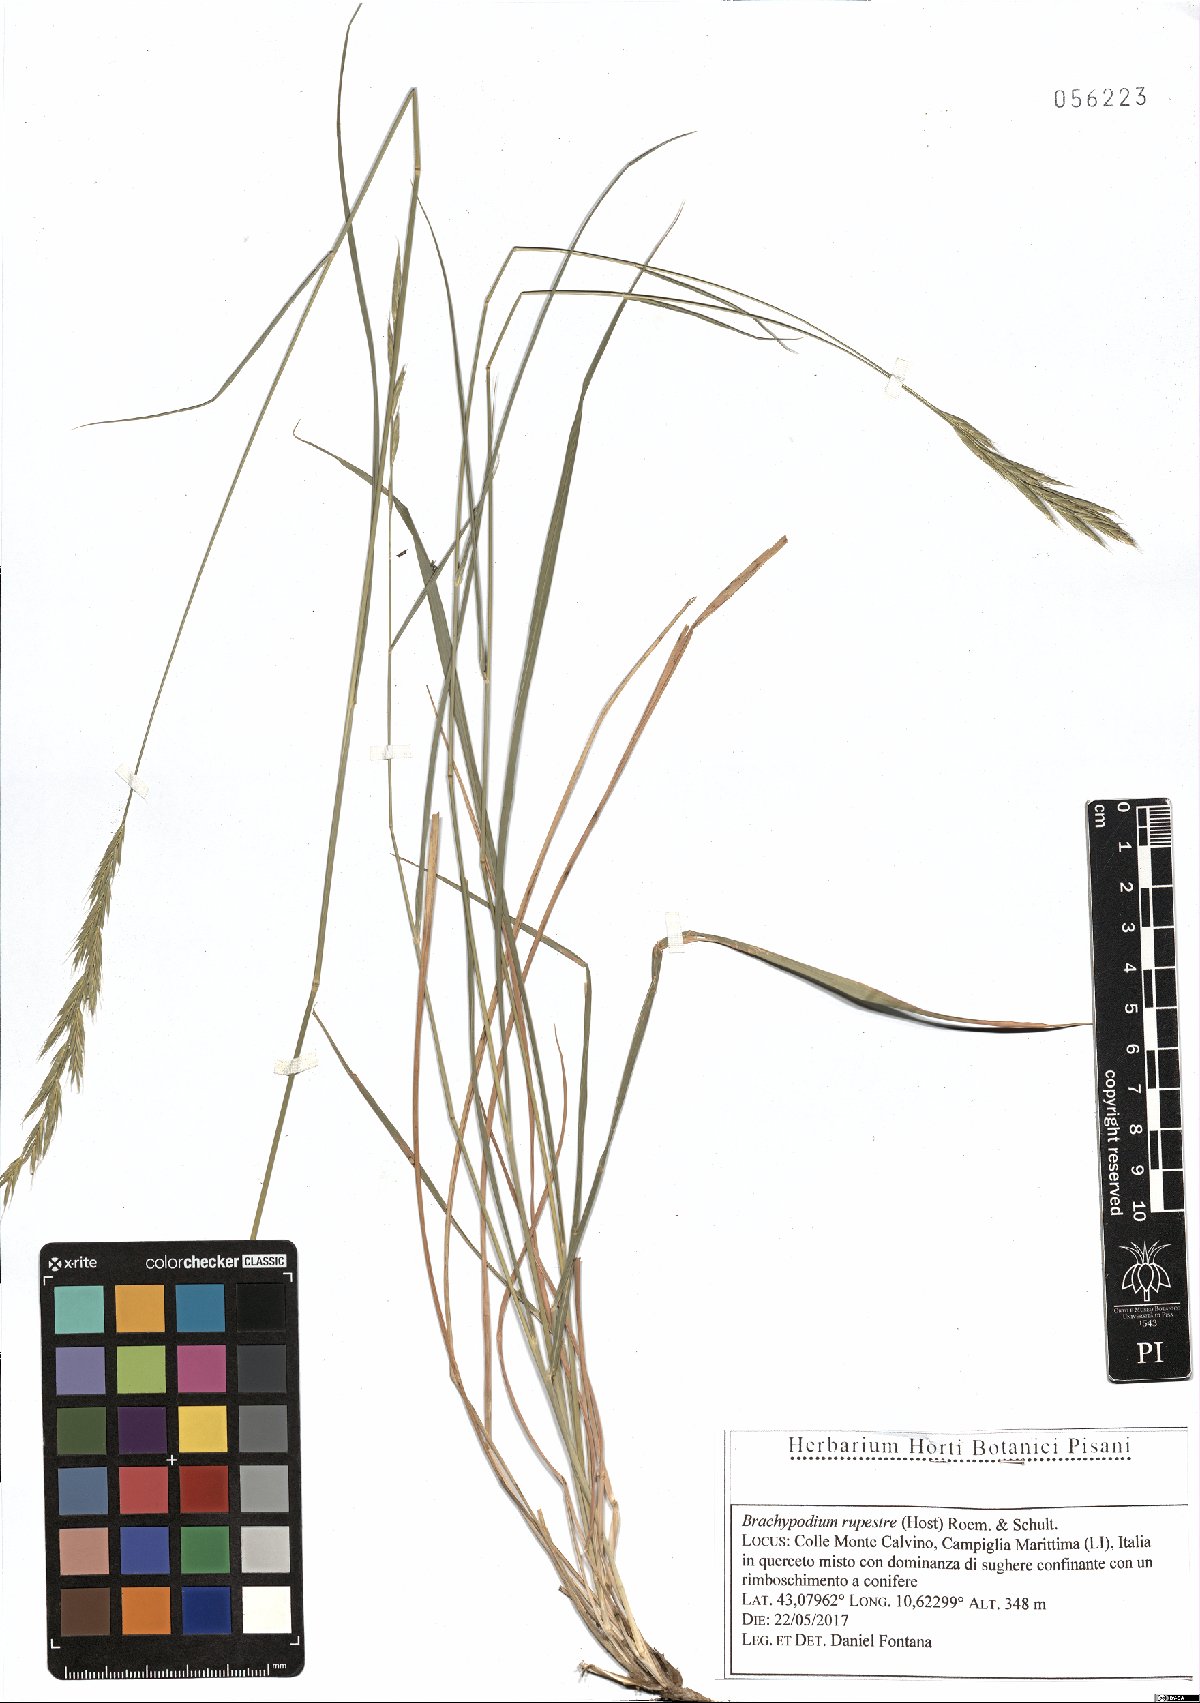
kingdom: Plantae
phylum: Tracheophyta
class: Liliopsida
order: Poales
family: Poaceae
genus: Brachypodium
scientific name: Brachypodium pinnatum
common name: Tor grass
